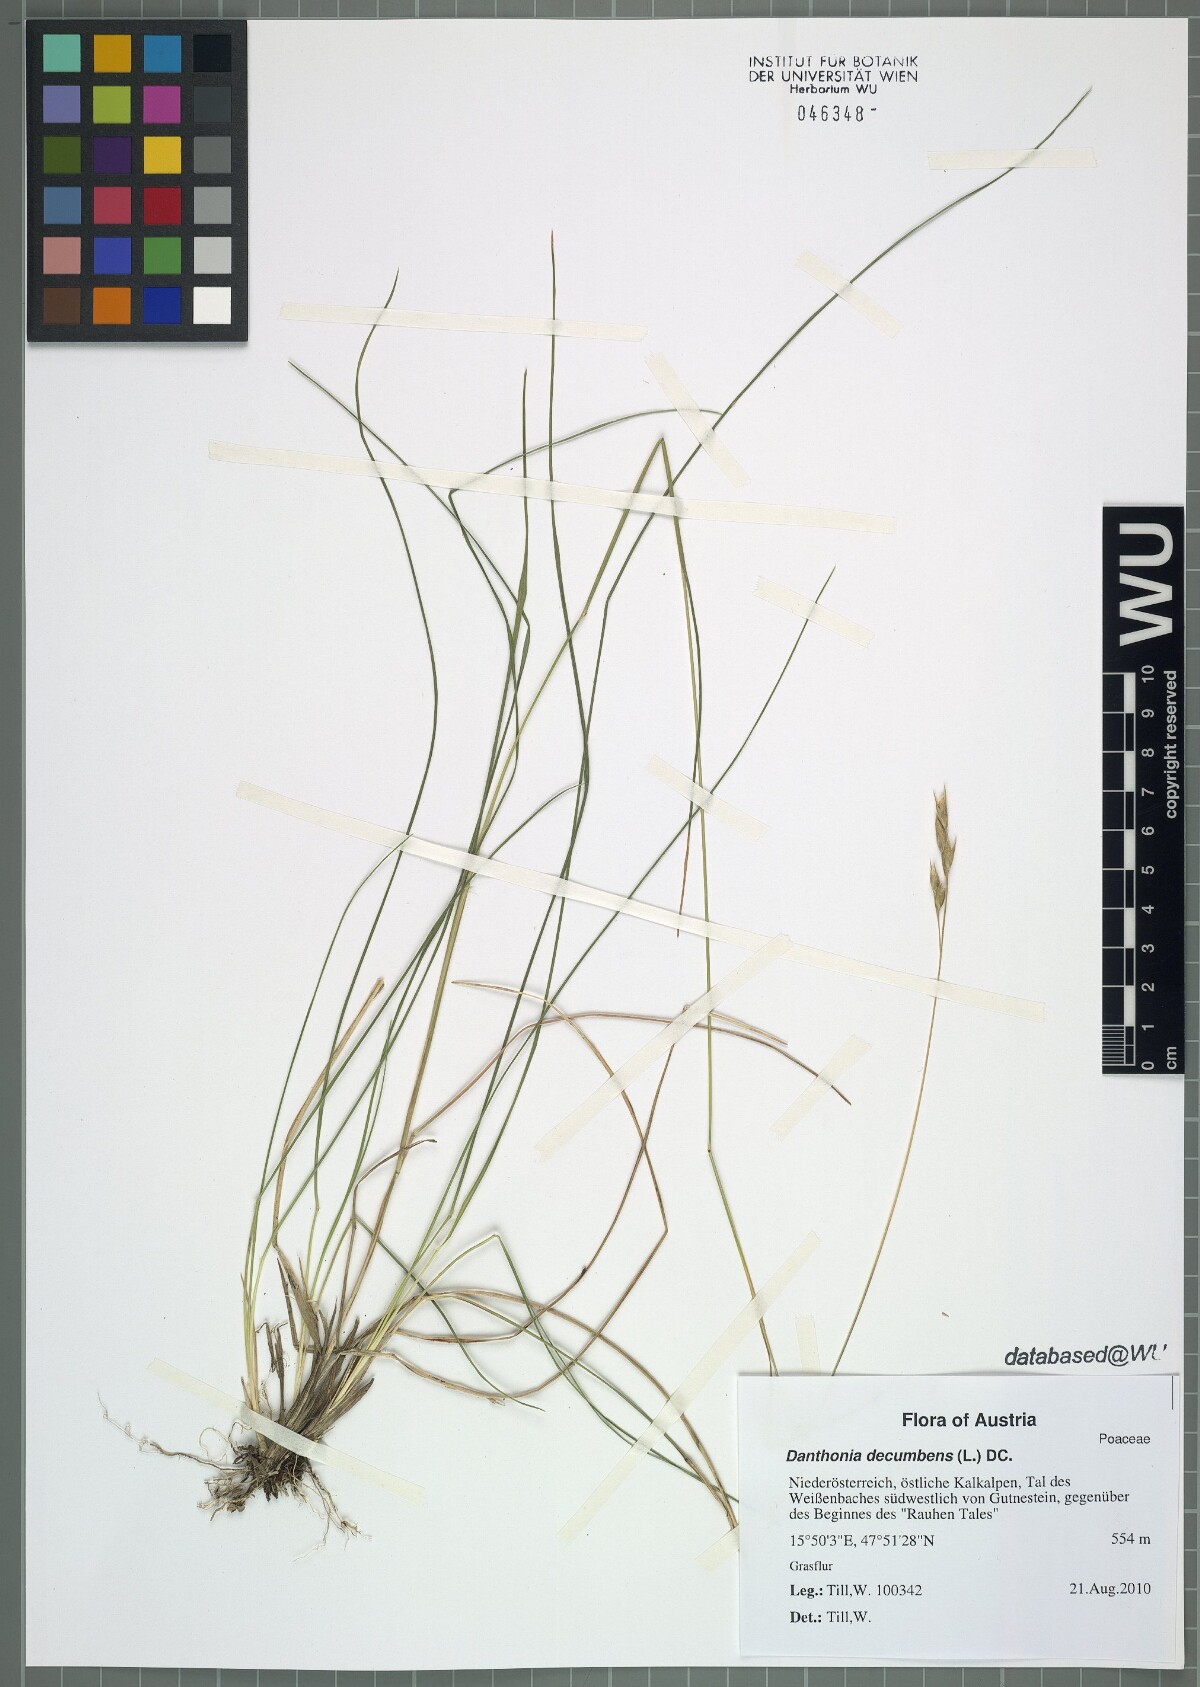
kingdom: Plantae
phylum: Tracheophyta
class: Liliopsida
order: Poales
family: Poaceae
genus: Danthonia
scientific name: Danthonia decumbens
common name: Common heathgrass
